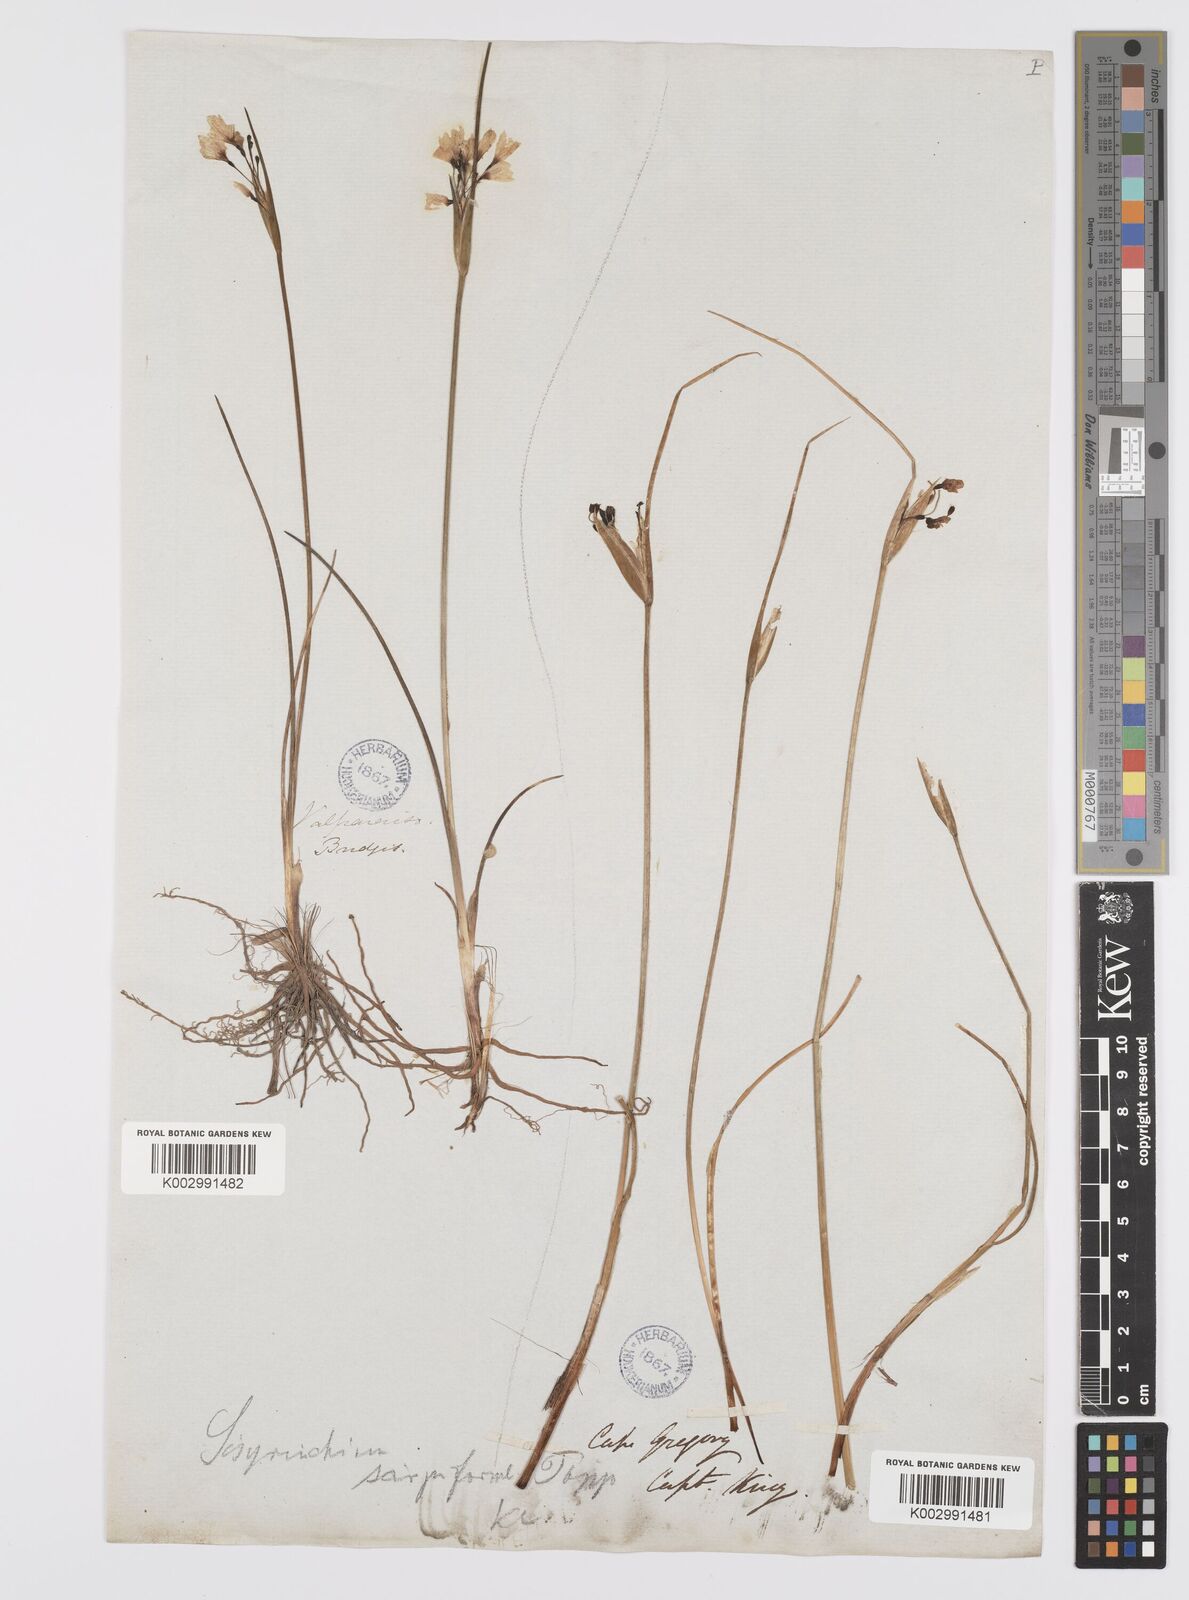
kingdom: Plantae
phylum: Tracheophyta
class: Liliopsida
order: Asparagales
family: Iridaceae
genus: Olsynium
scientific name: Olsynium junceum
